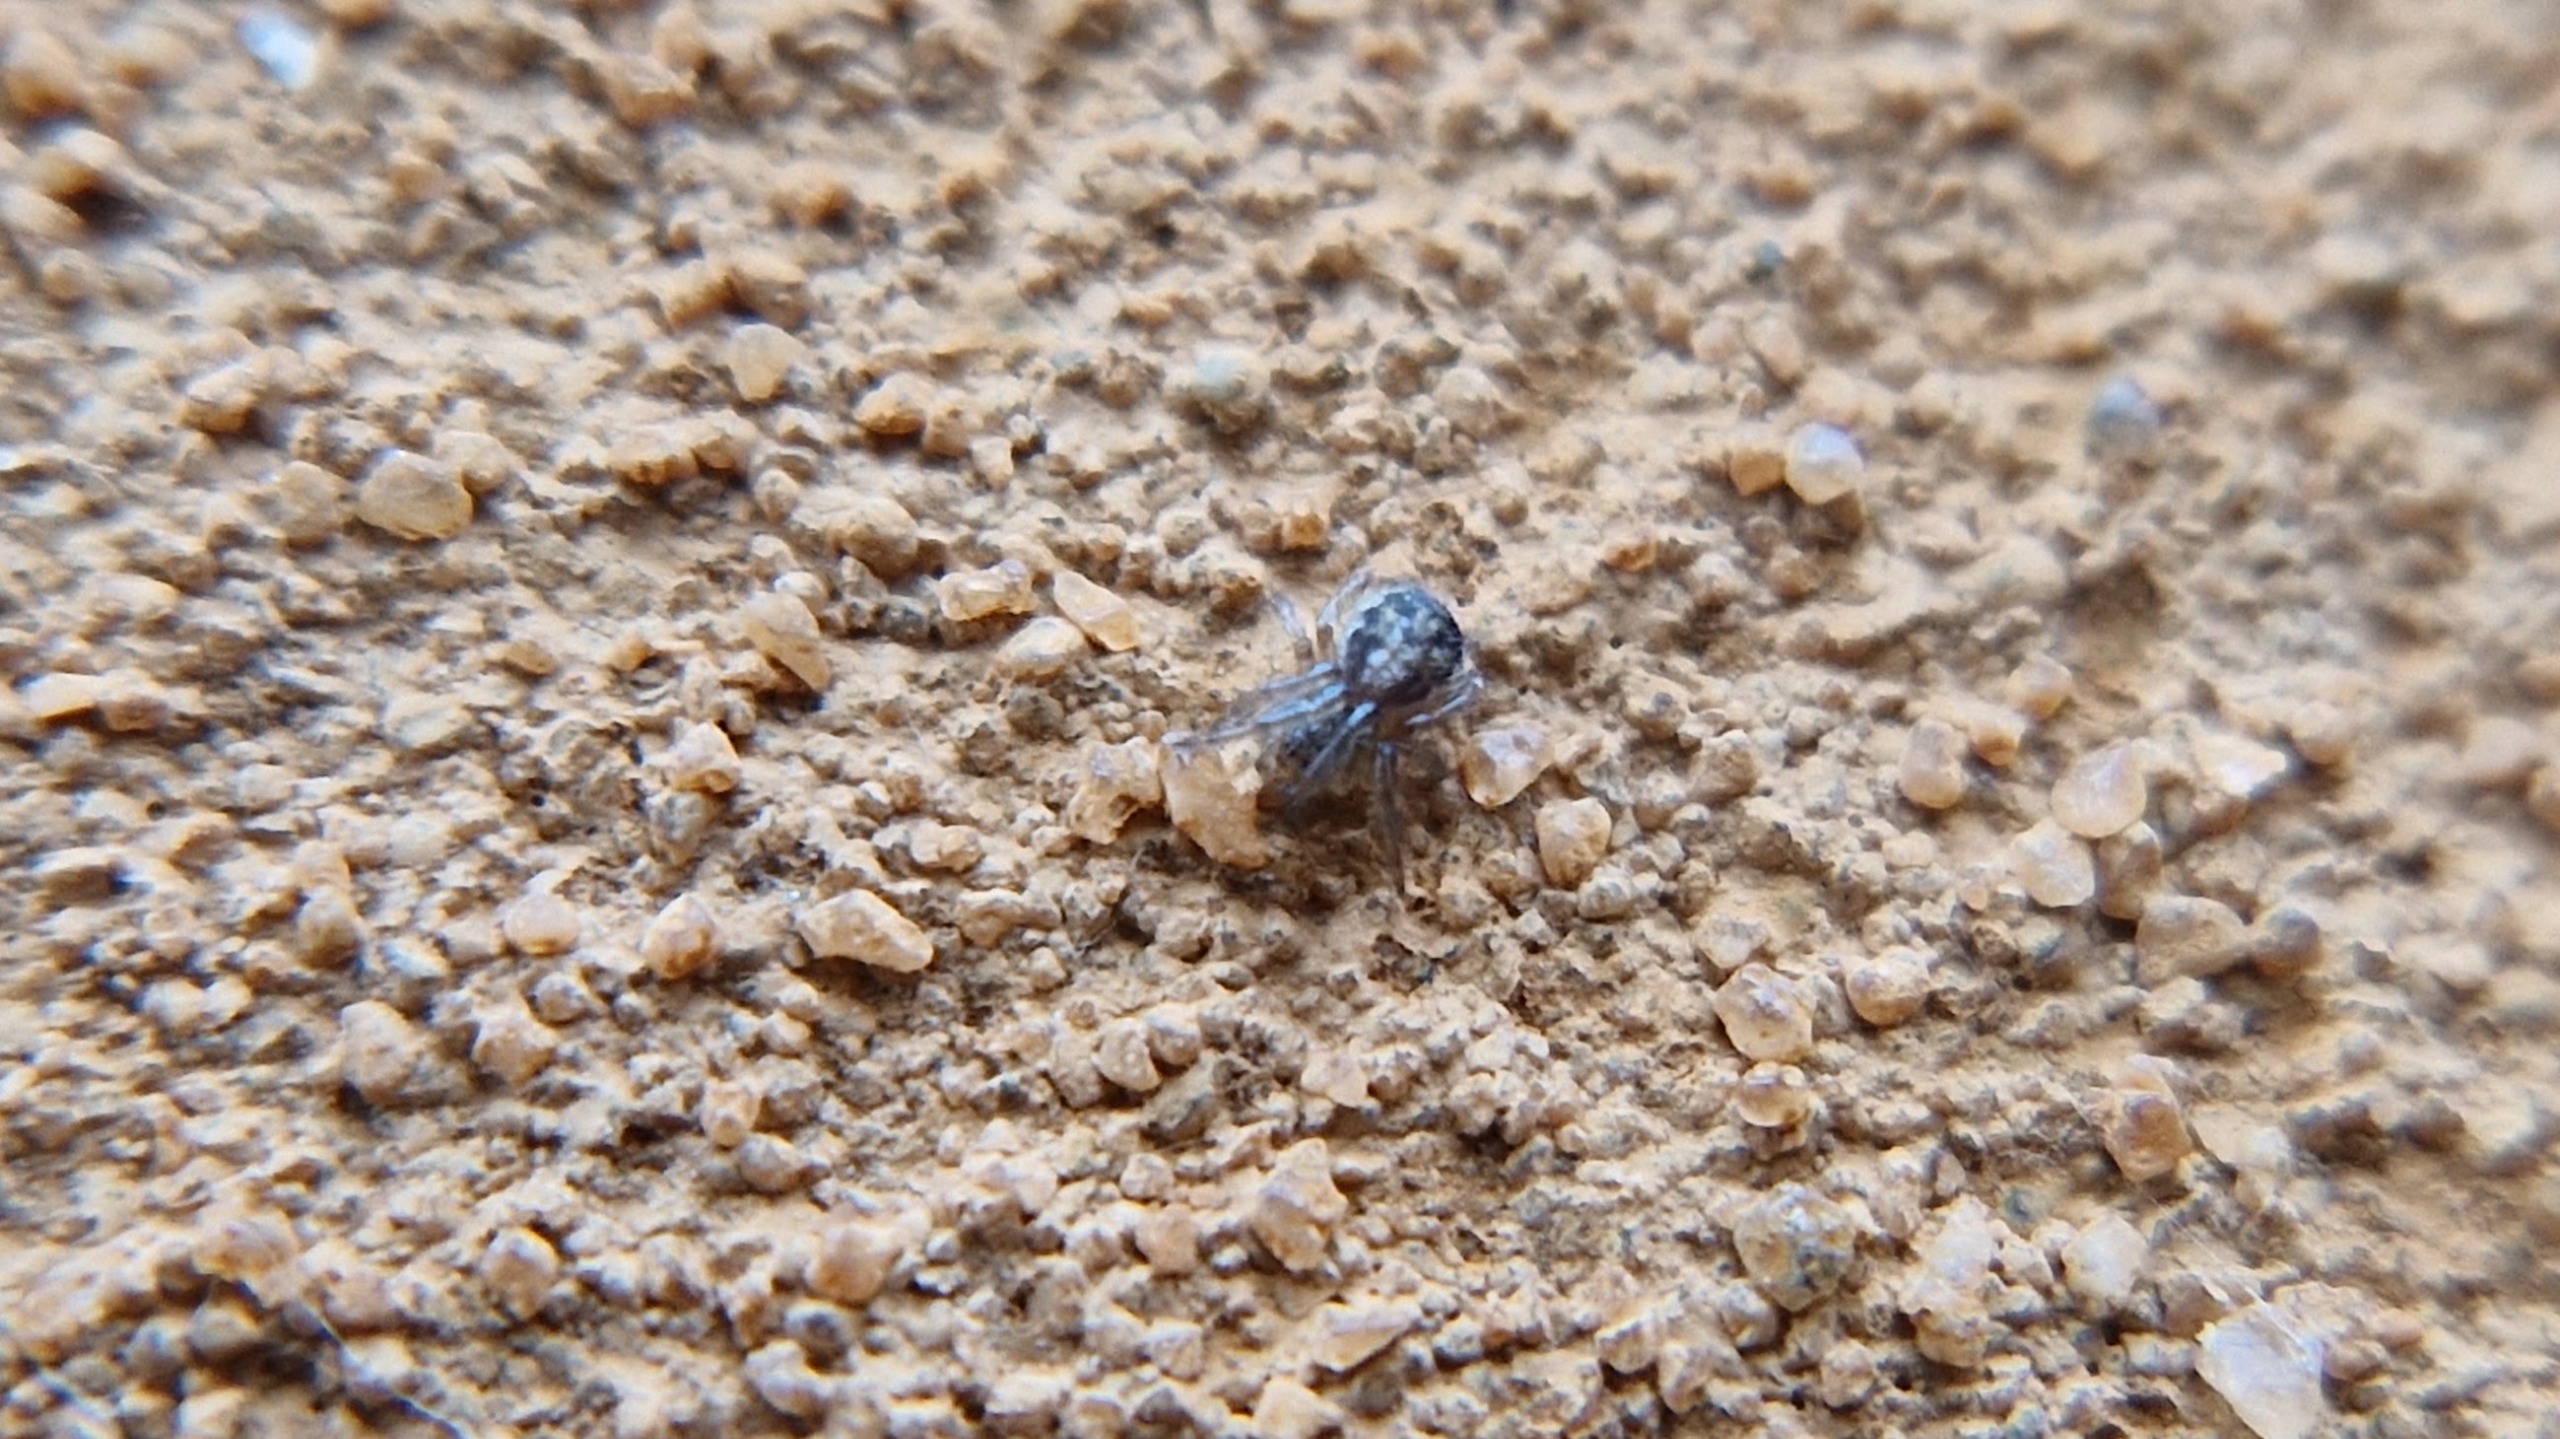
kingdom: Animalia
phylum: Arthropoda
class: Arachnida
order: Araneae
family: Araneidae
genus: Zygiella
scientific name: Zygiella x-notata
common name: Grå sektoredderkop
